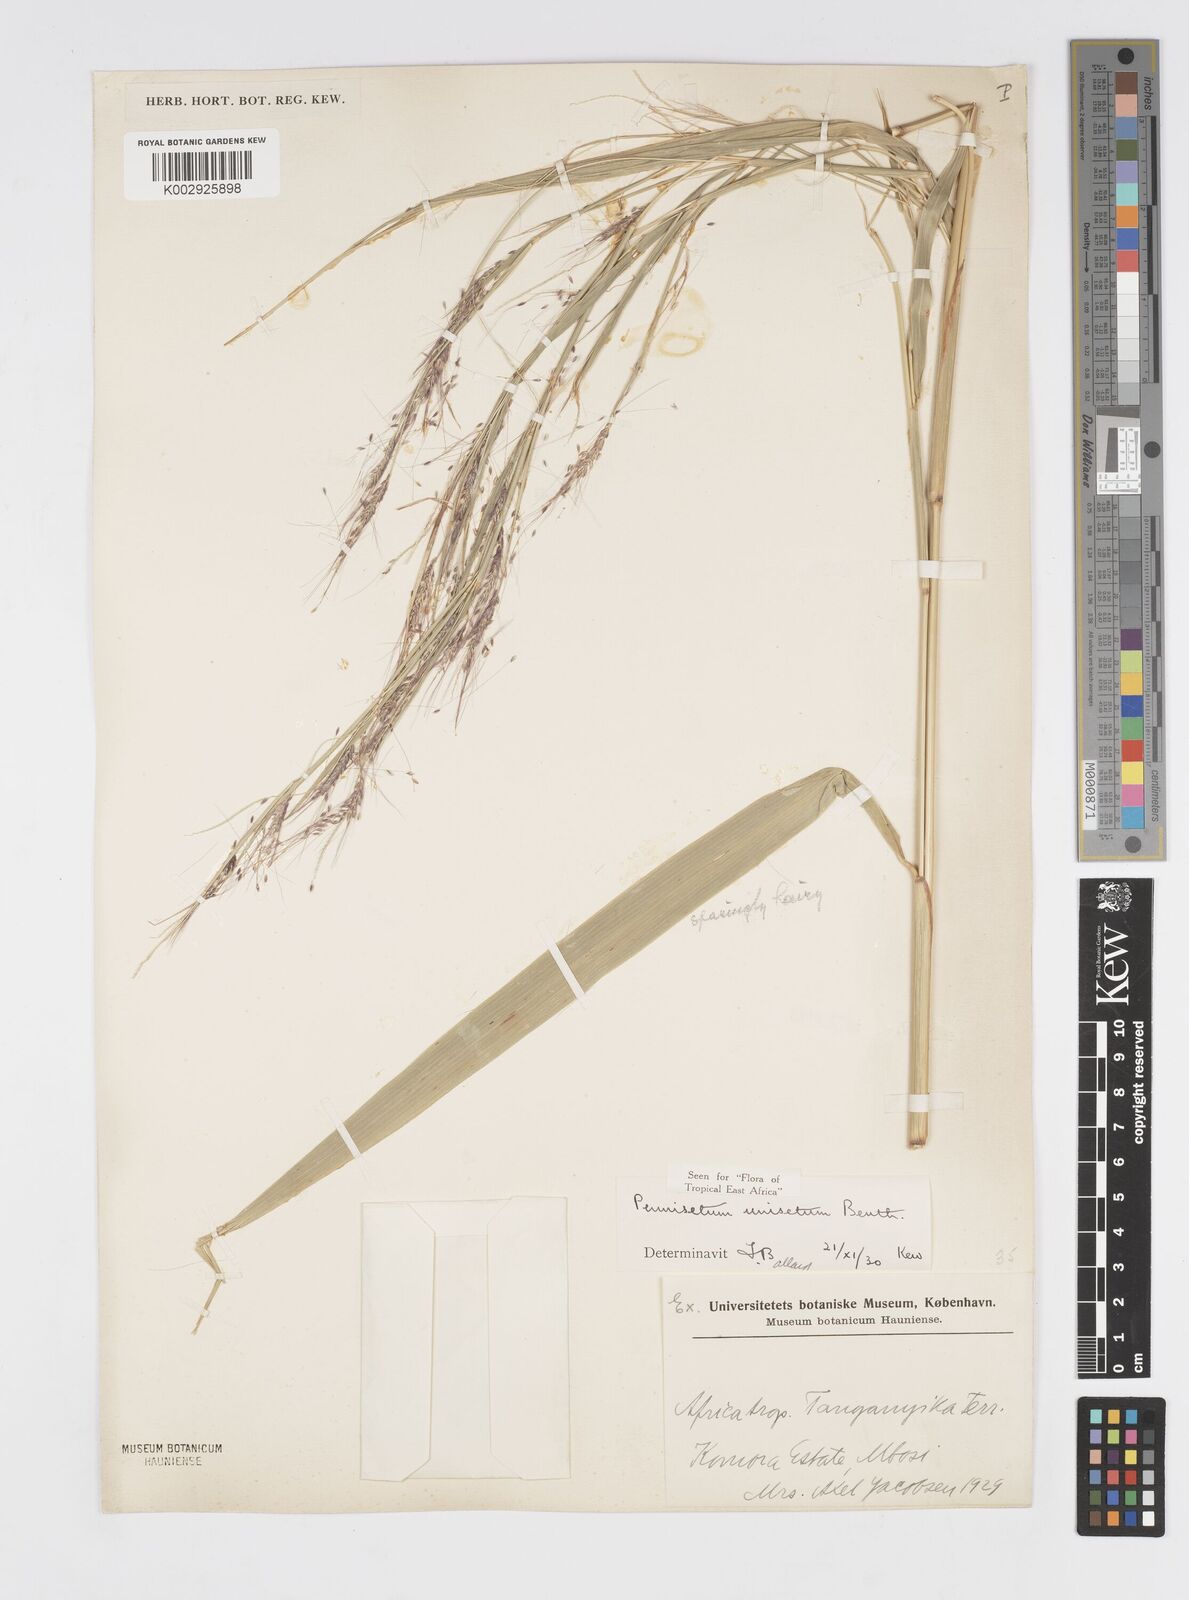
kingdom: Plantae
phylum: Tracheophyta
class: Liliopsida
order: Poales
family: Poaceae
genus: Cenchrus
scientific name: Cenchrus unisetus
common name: Natal grass
